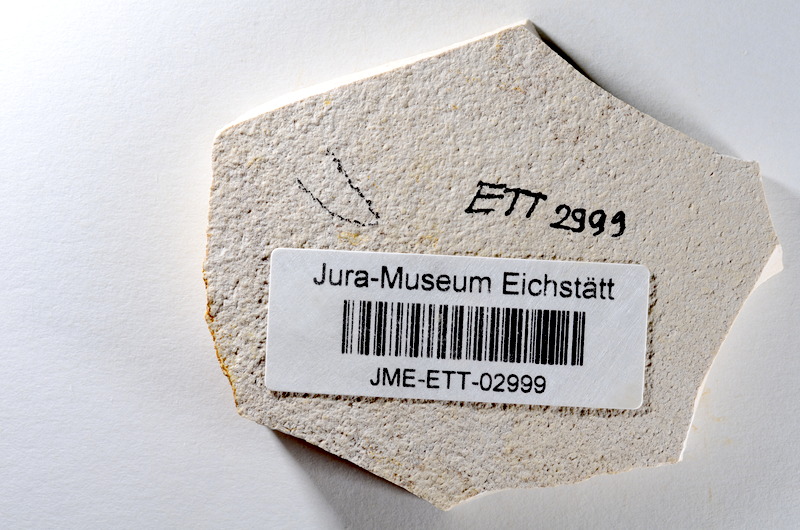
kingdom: Animalia
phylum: Chordata
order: Salmoniformes
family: Orthogonikleithridae
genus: Orthogonikleithrus
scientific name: Orthogonikleithrus hoelli
